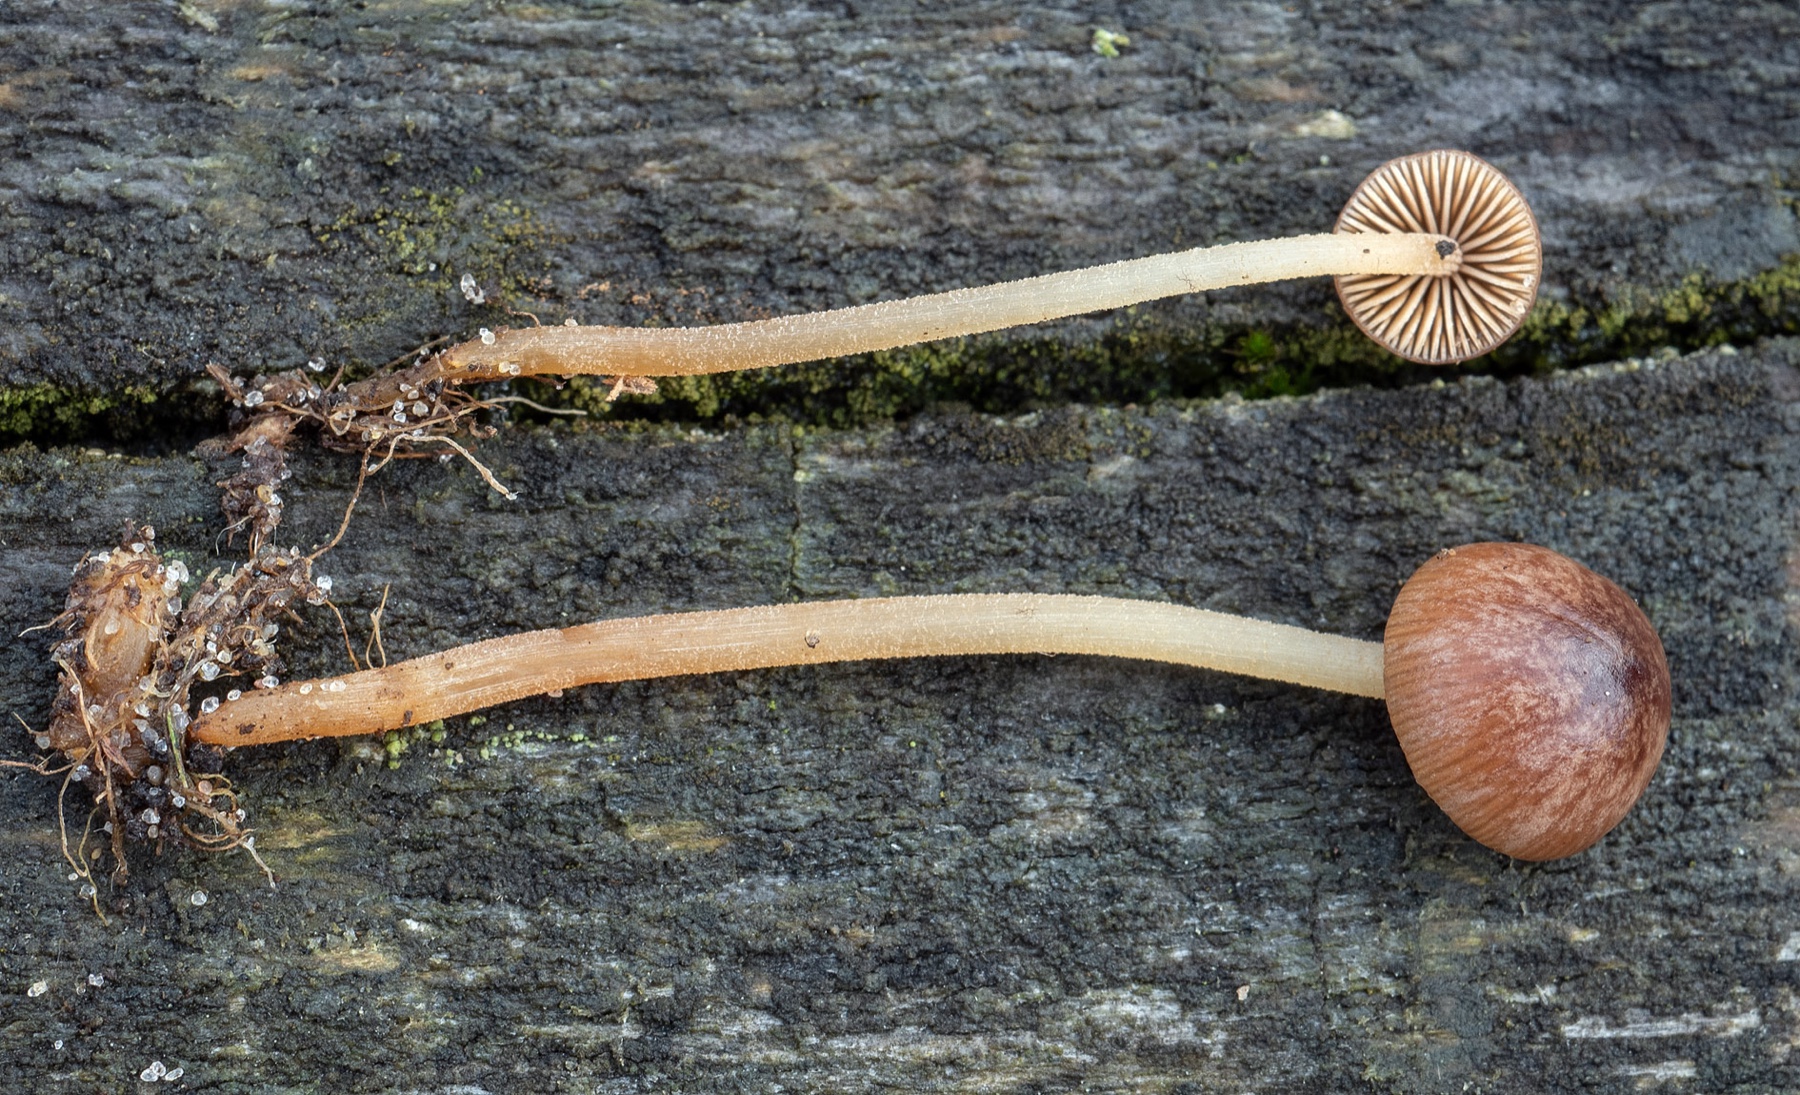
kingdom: Fungi
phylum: Basidiomycota
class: Agaricomycetes
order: Agaricales
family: Bolbitiaceae
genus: Conocybe
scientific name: Conocybe
